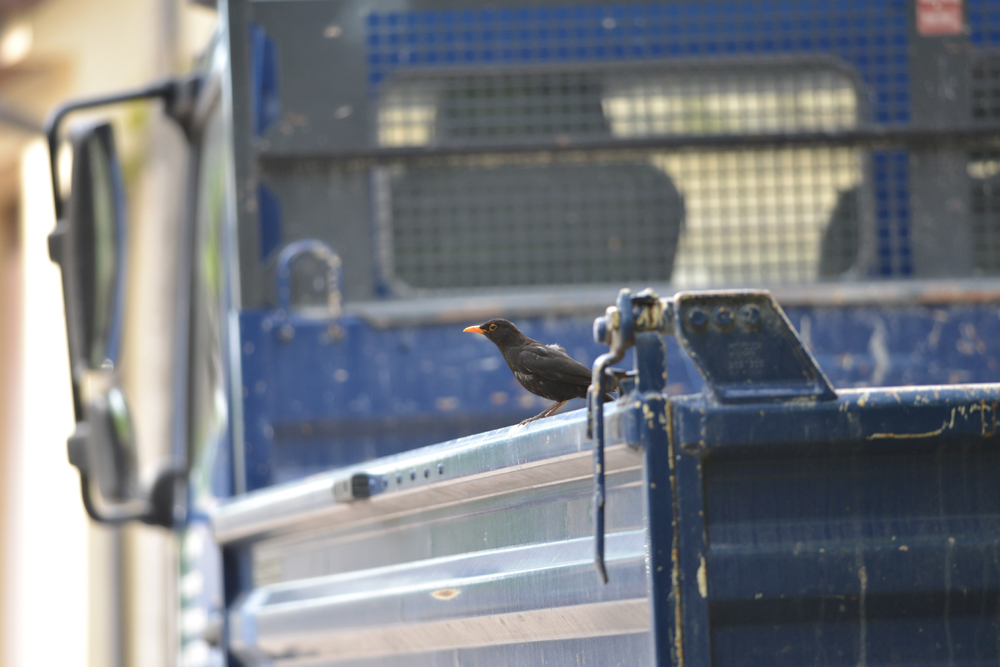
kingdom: Animalia
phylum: Chordata
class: Aves
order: Passeriformes
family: Turdidae
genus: Turdus
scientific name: Turdus merula
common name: Common blackbird
